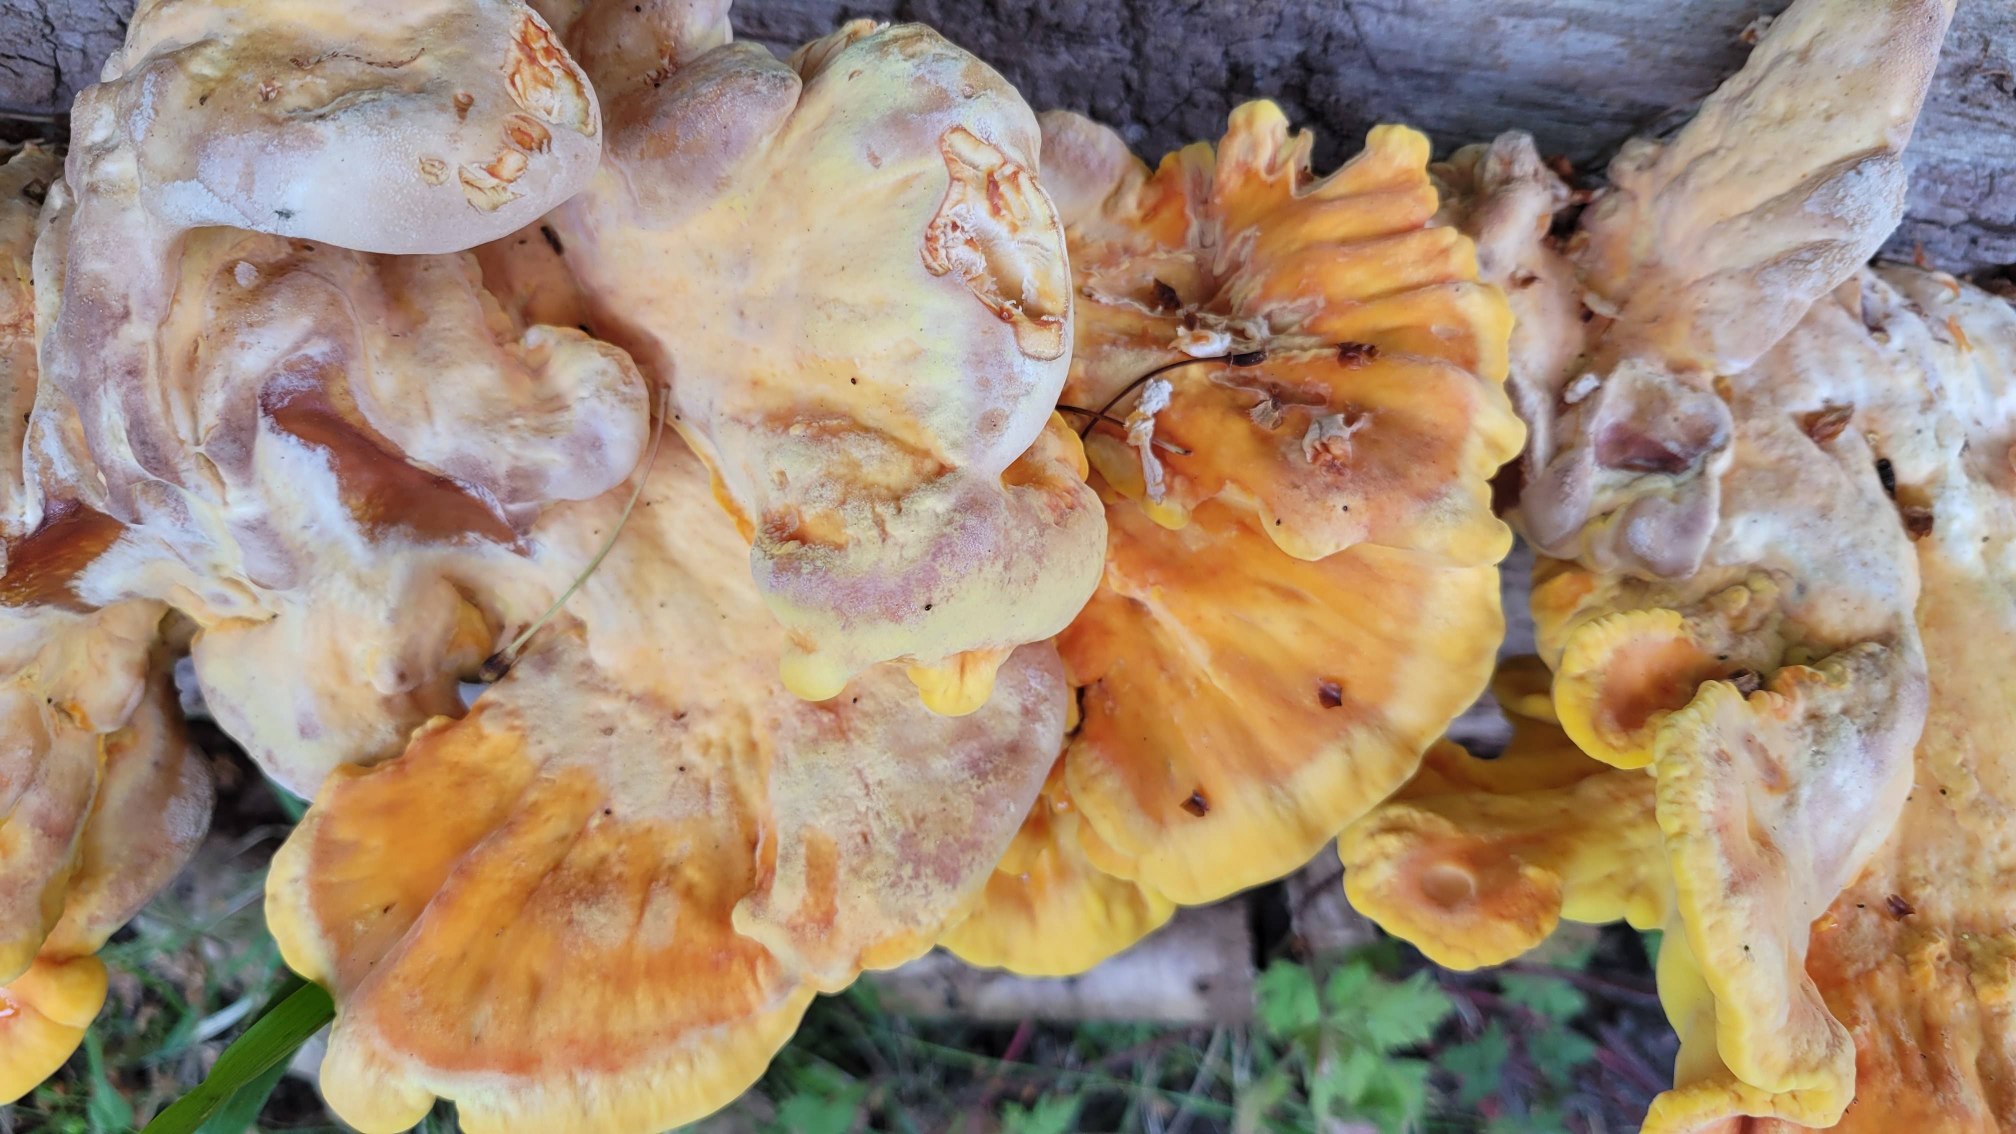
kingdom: Fungi
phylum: Basidiomycota
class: Agaricomycetes
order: Polyporales
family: Laetiporaceae
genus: Laetiporus
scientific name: Laetiporus sulphureus
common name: Svovlporesvamp
